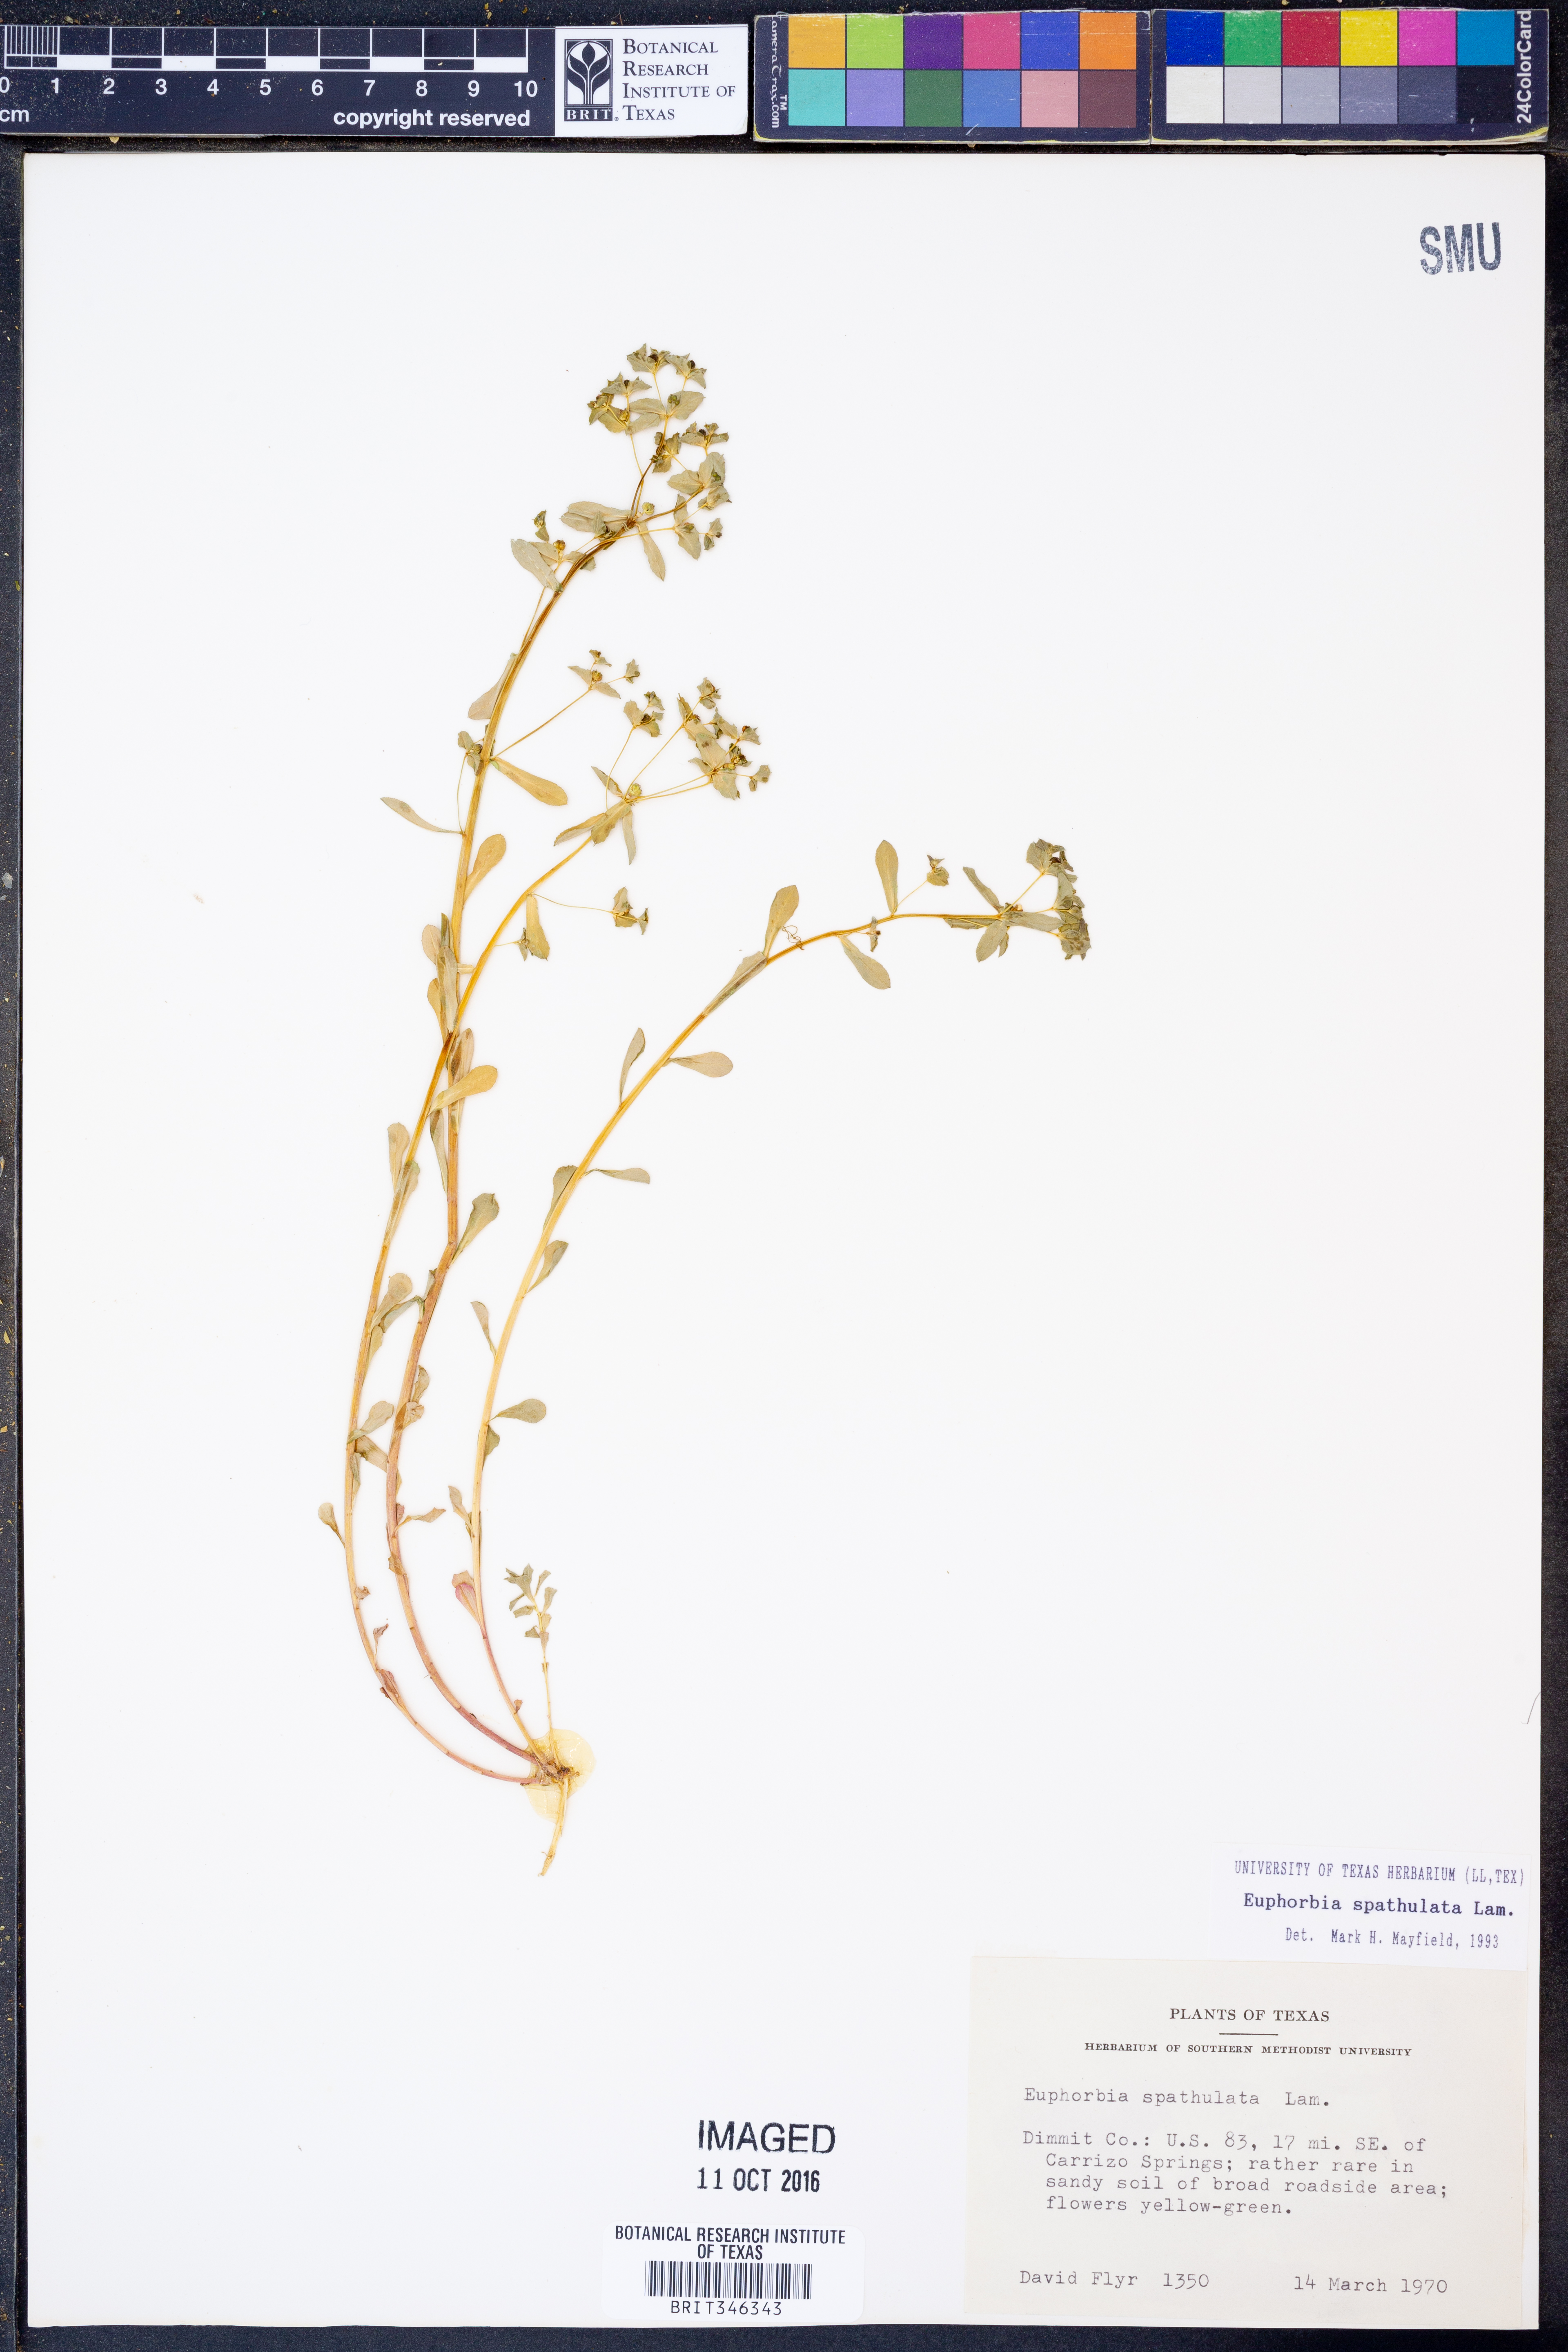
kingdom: Plantae
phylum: Tracheophyta
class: Magnoliopsida
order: Malpighiales
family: Euphorbiaceae
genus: Euphorbia
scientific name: Euphorbia spathulata
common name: Blunt spurge
